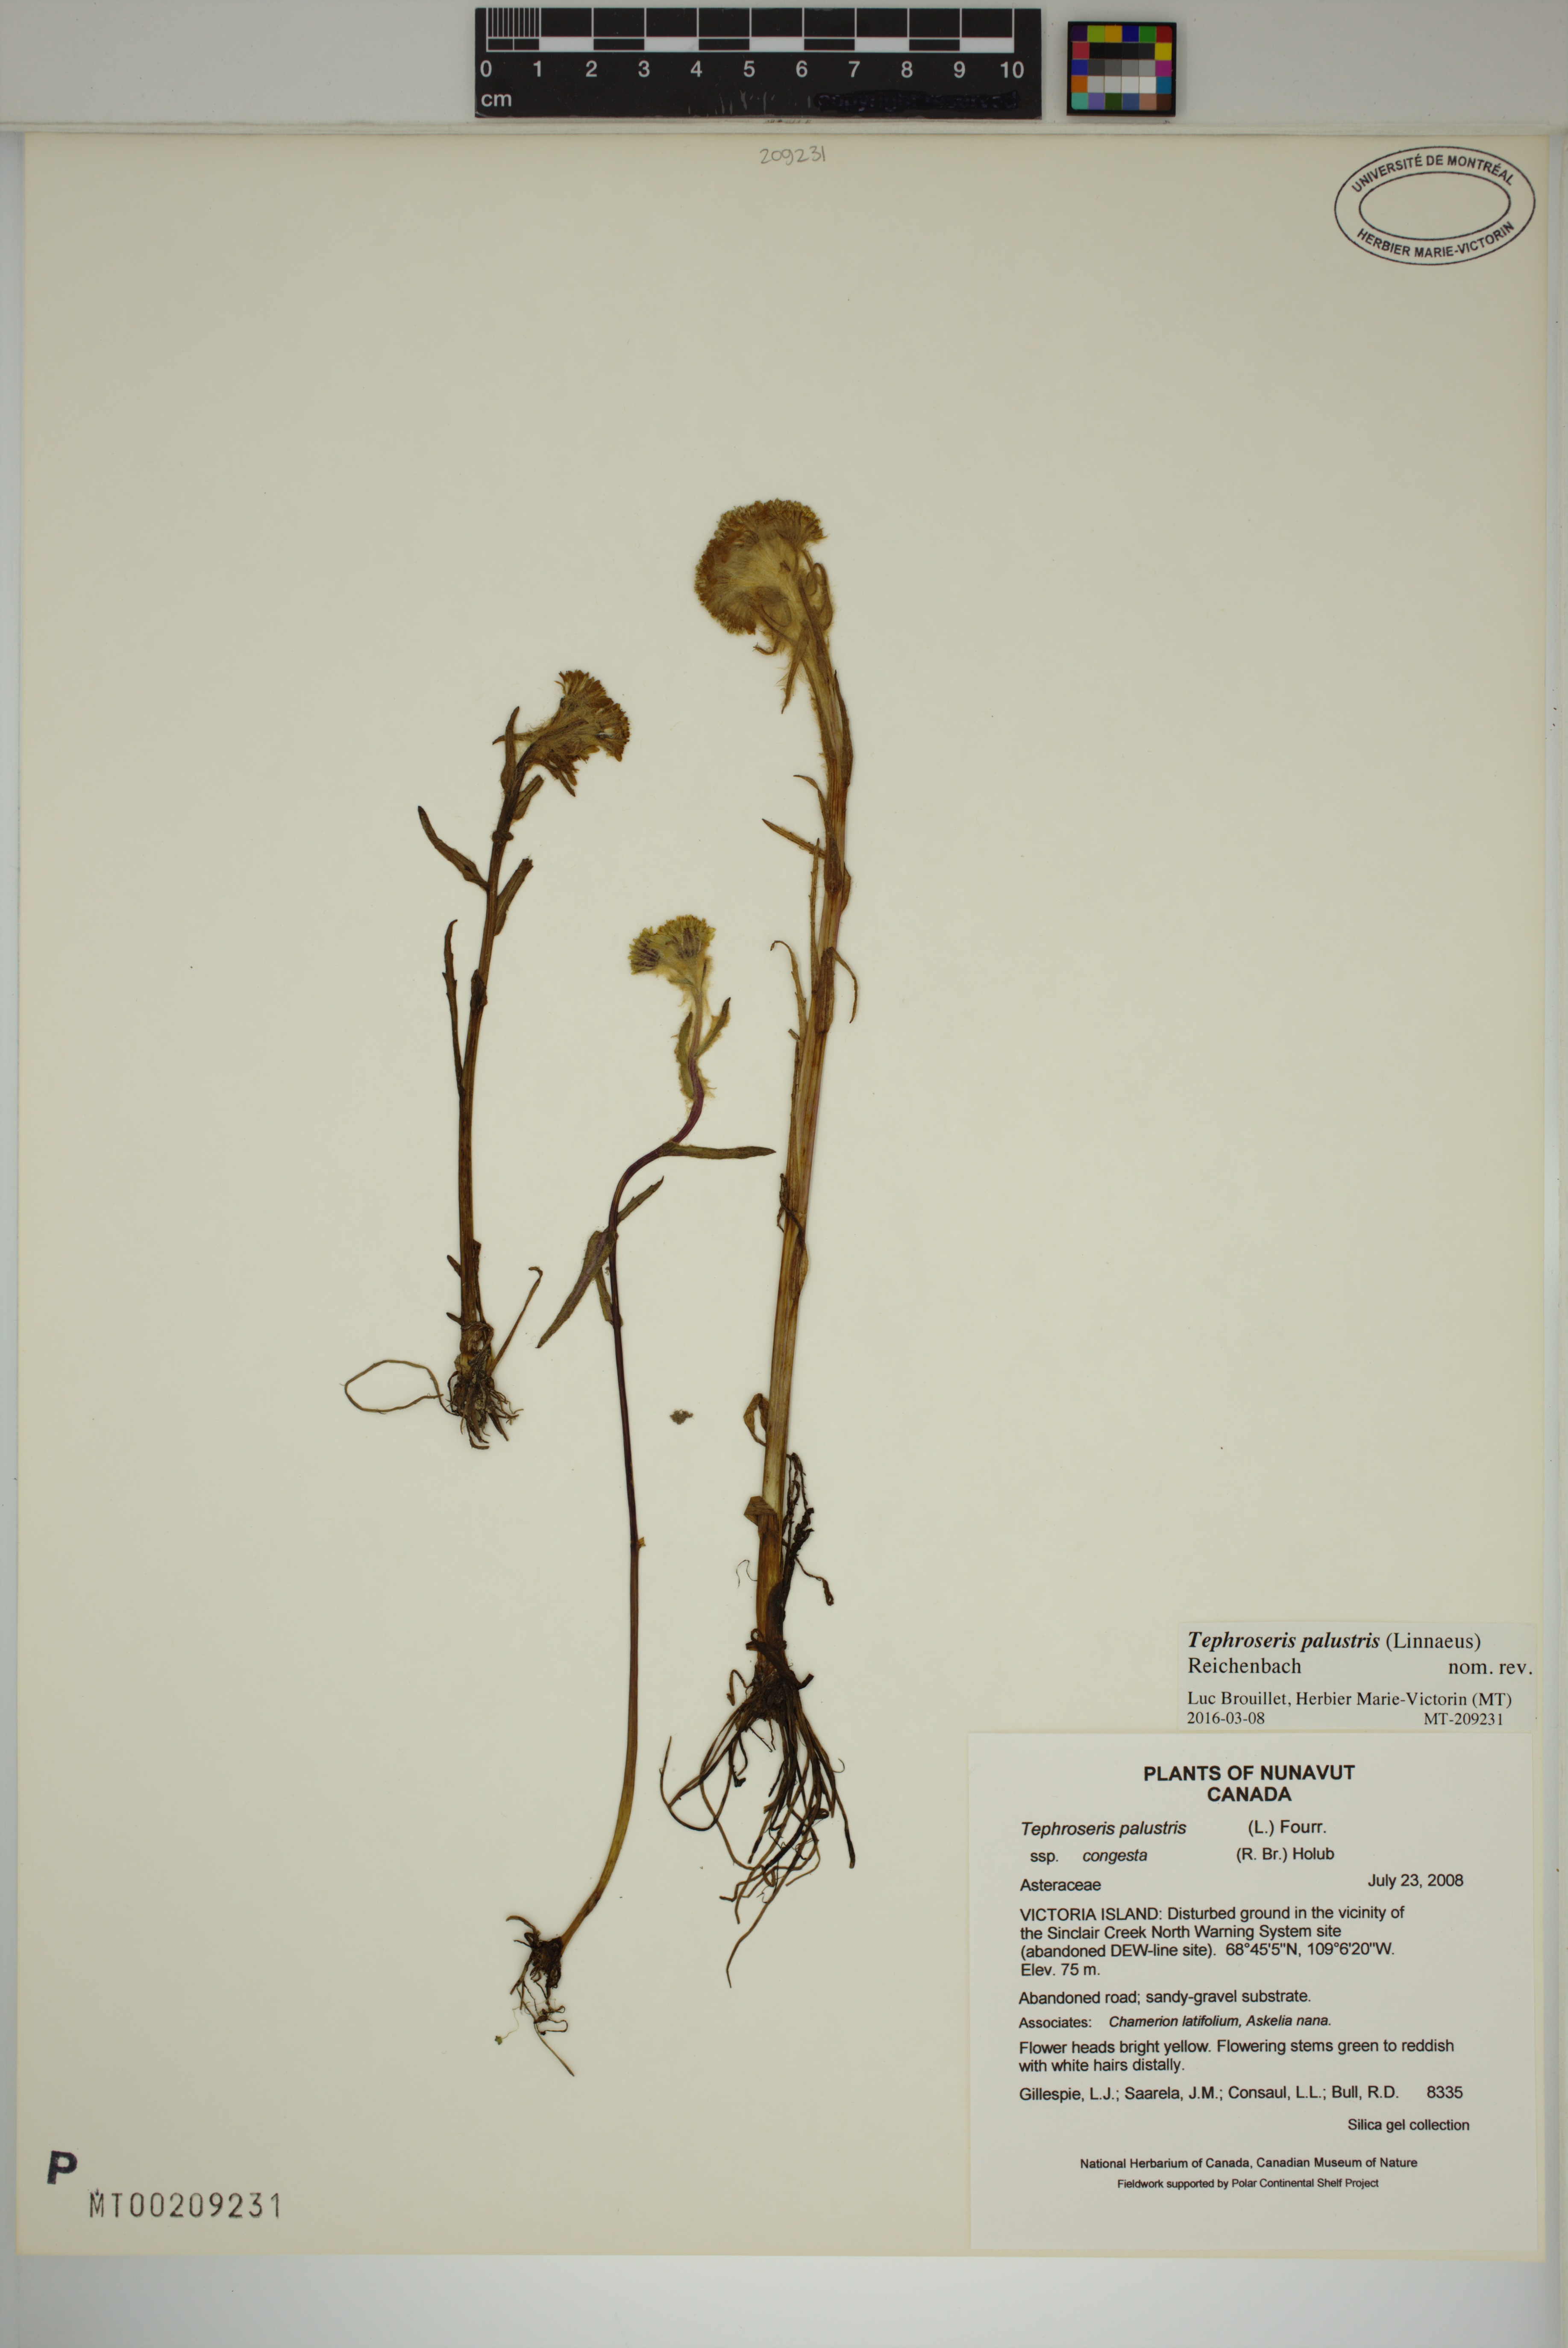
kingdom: Plantae
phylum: Tracheophyta
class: Magnoliopsida
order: Asterales
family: Asteraceae
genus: Tephroseris
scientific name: Tephroseris palustris
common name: Marsh fleawort
